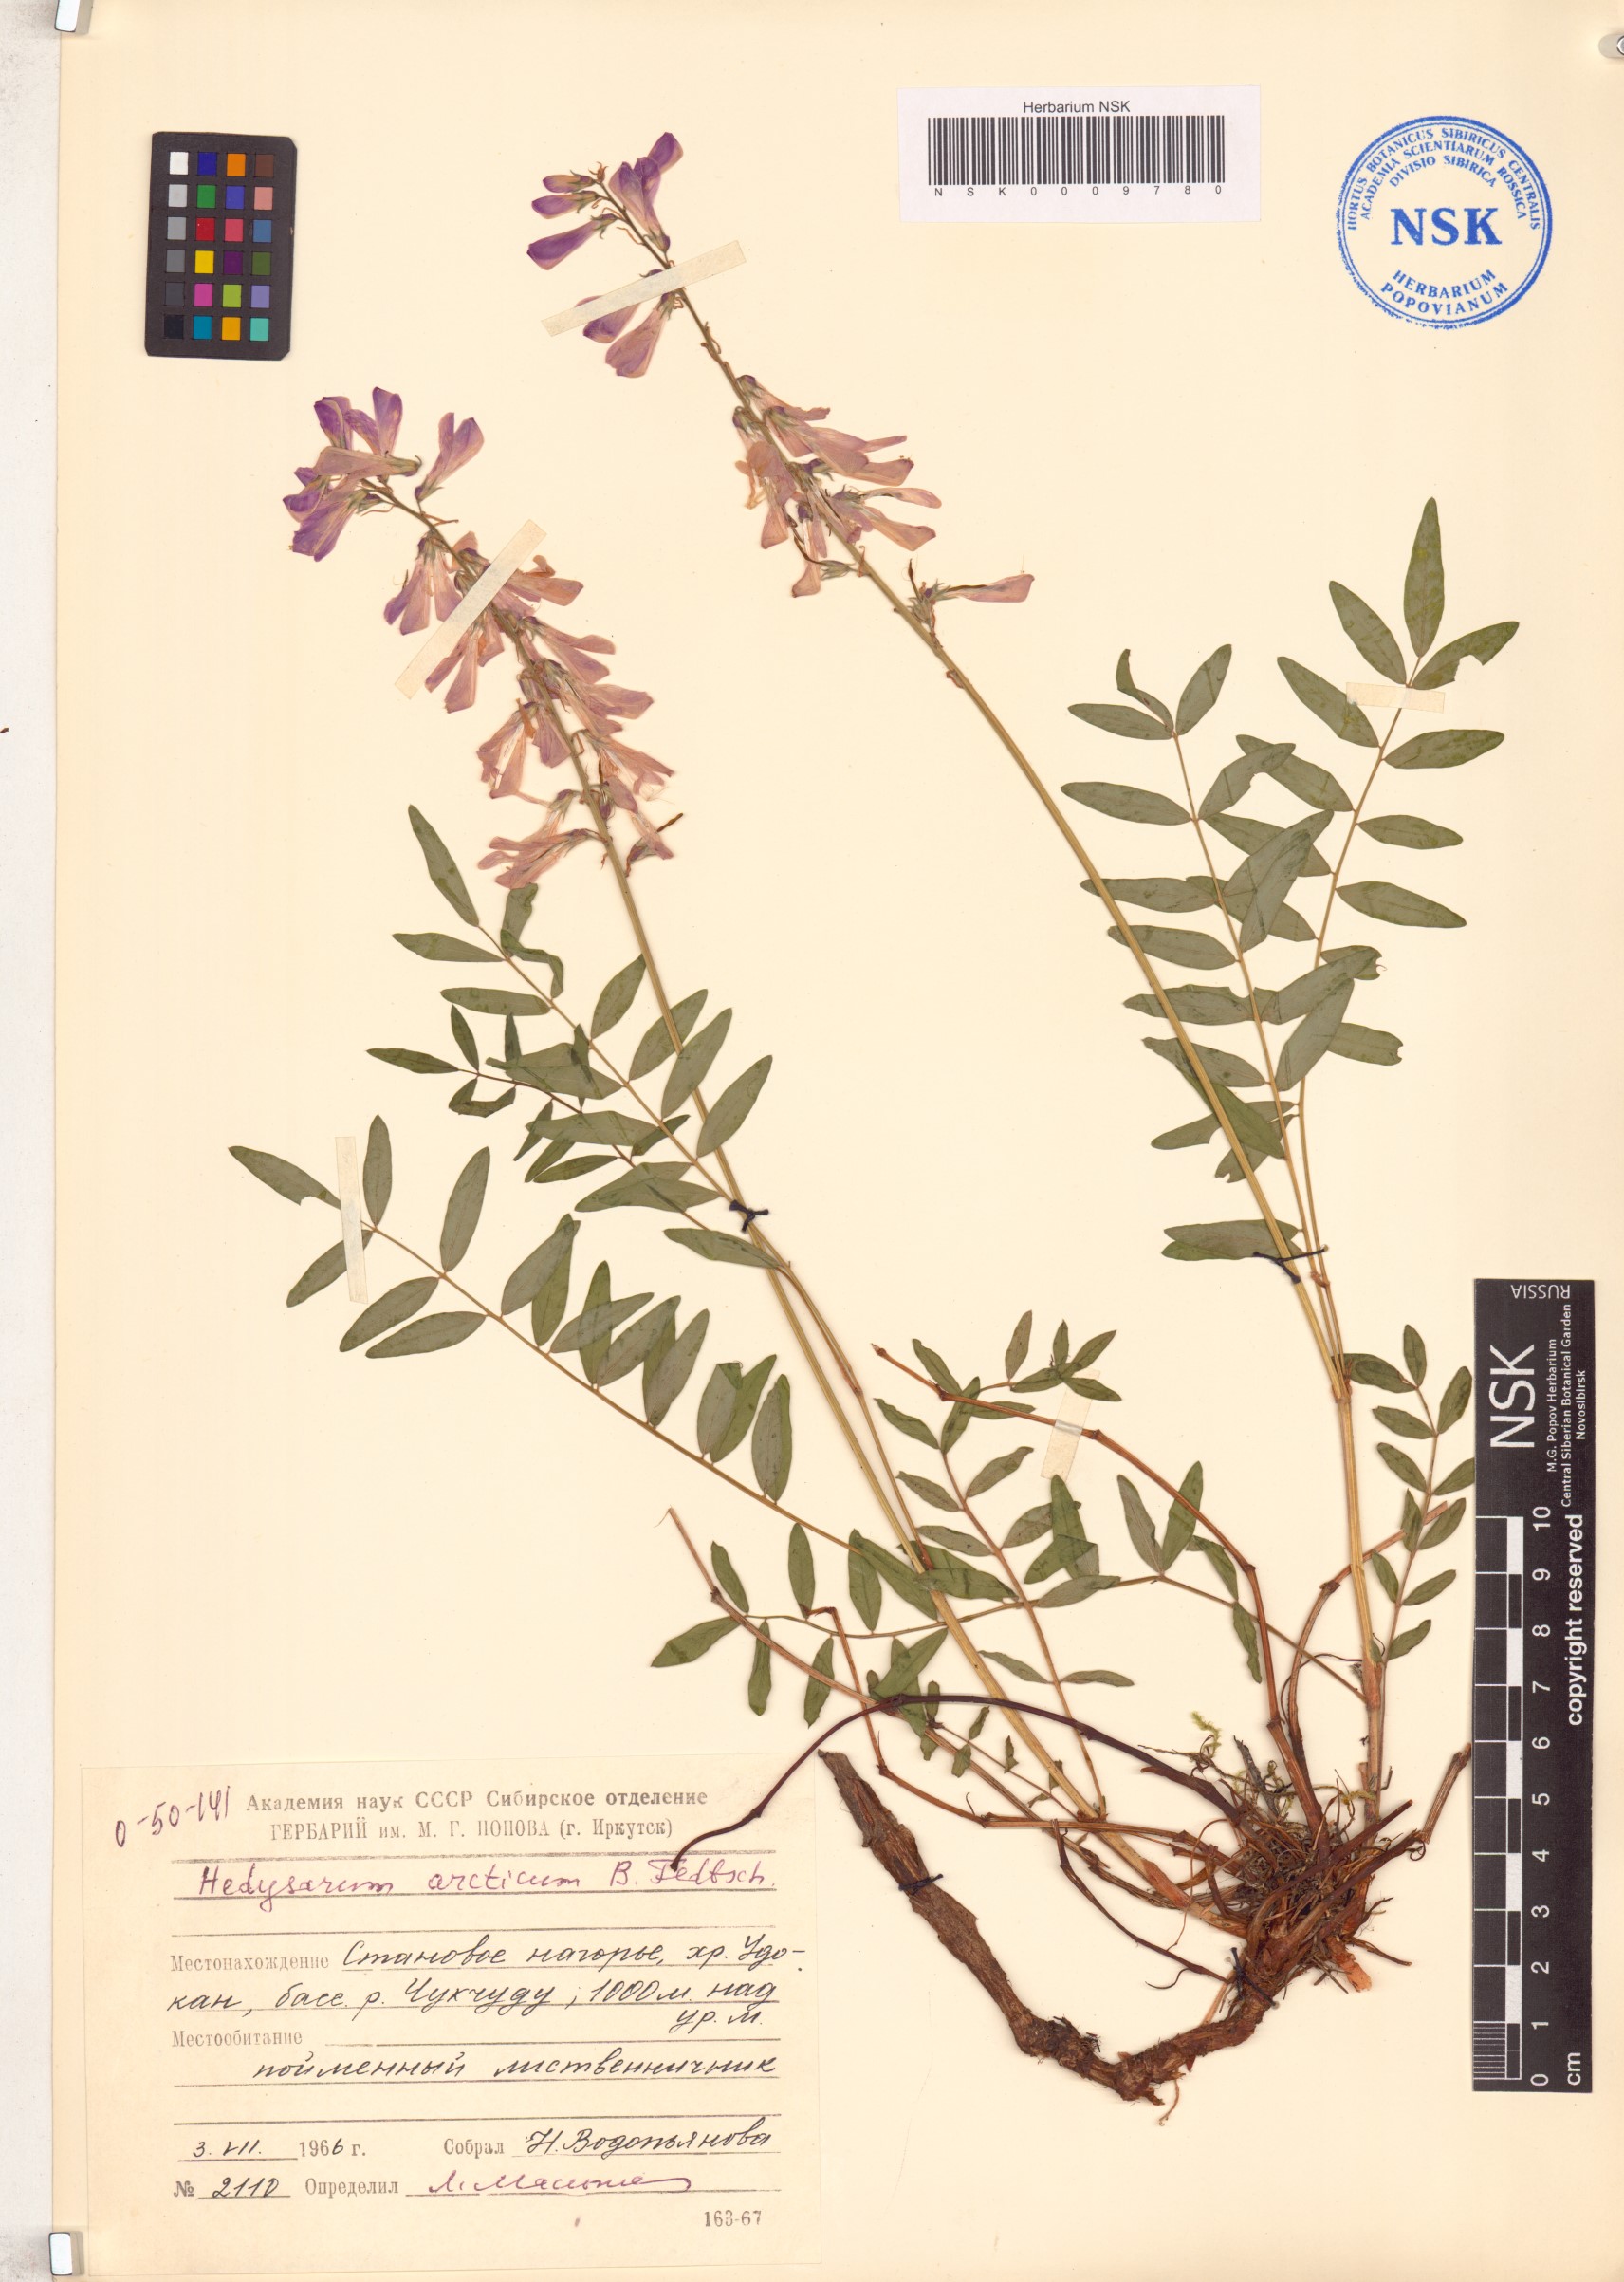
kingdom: Plantae
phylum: Tracheophyta
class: Magnoliopsida
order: Fabales
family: Fabaceae
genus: Hedysarum
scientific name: Hedysarum hedysaroides
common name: Alpine french-honeysuckle
